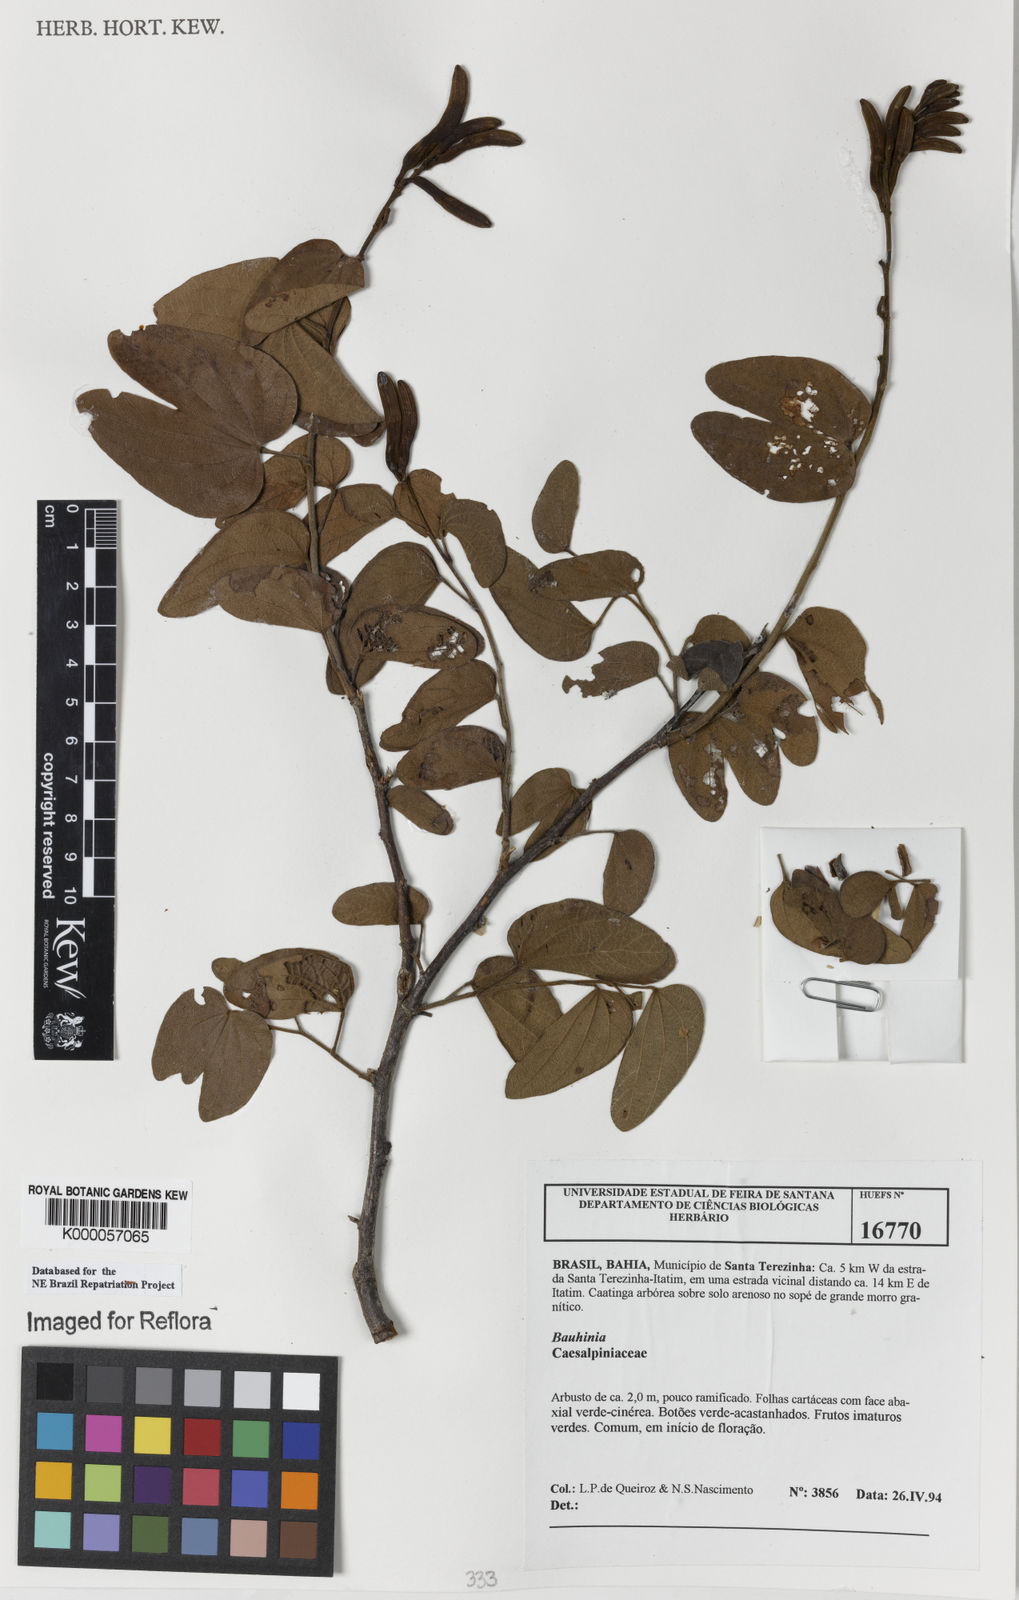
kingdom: Plantae
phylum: Tracheophyta
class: Magnoliopsida
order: Fabales
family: Fabaceae
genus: Bauhinia
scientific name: Bauhinia
